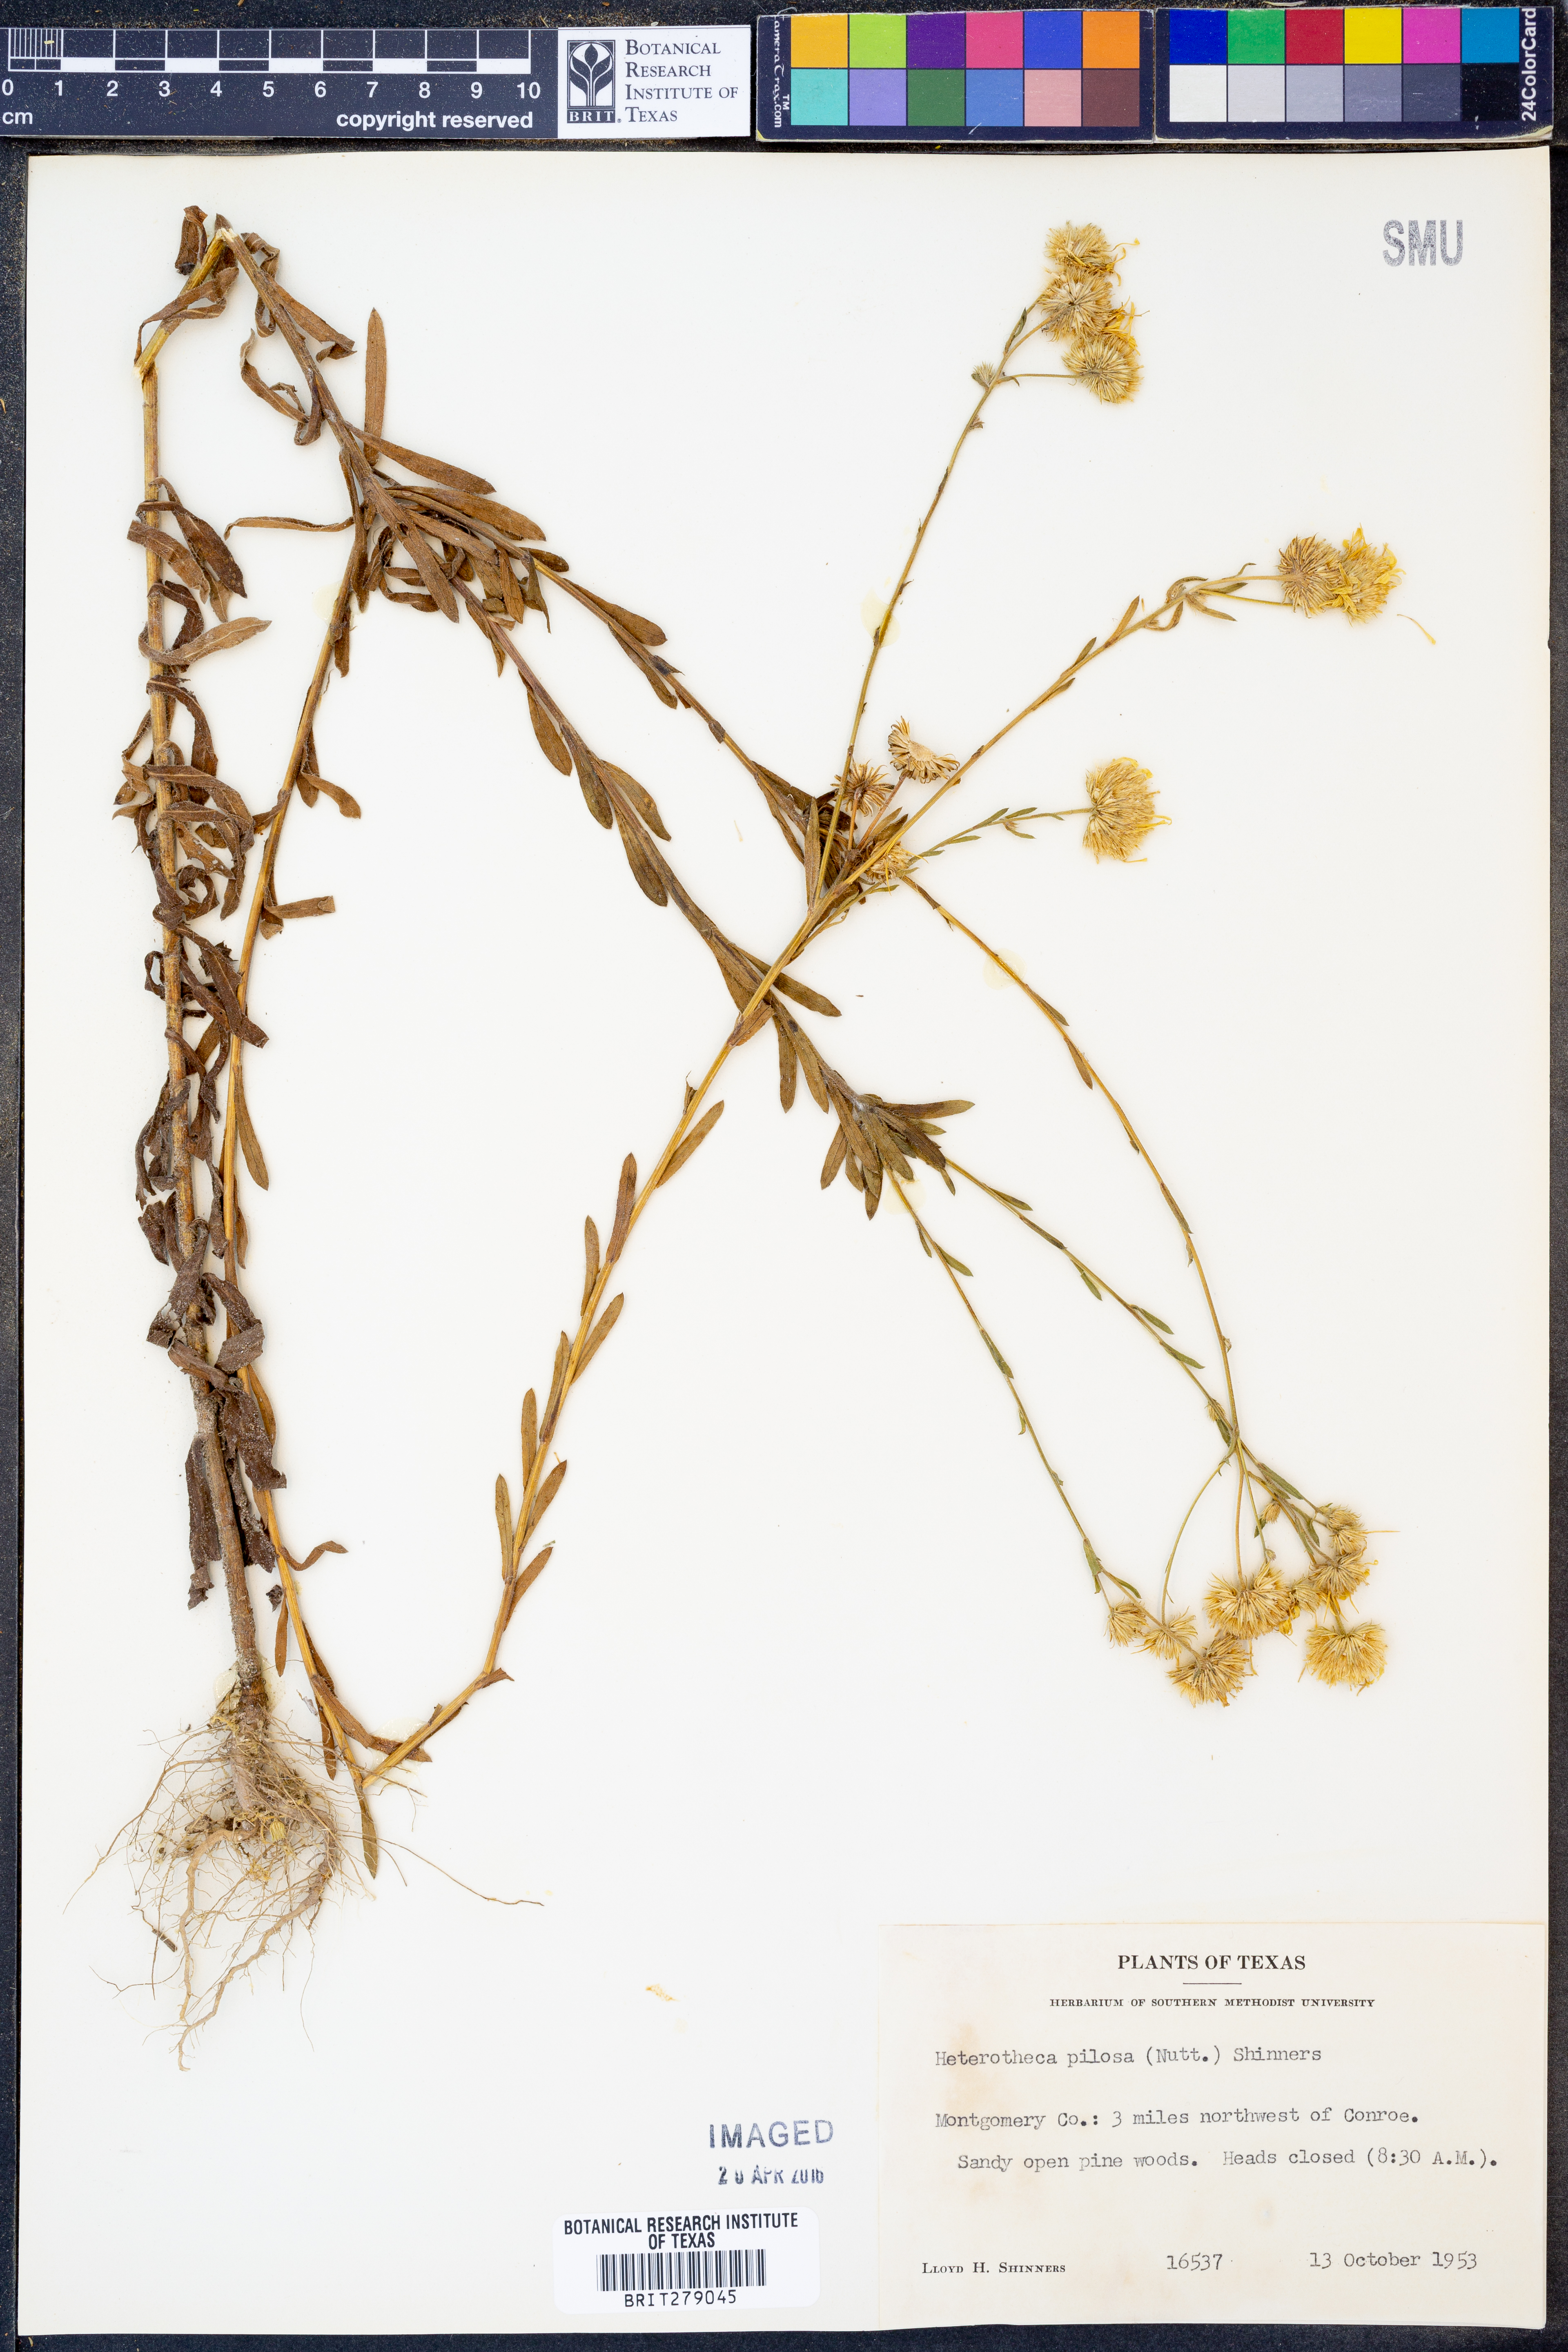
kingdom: Plantae
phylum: Tracheophyta
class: Magnoliopsida
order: Asterales
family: Asteraceae
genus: Bradburia
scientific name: Bradburia pilosa
